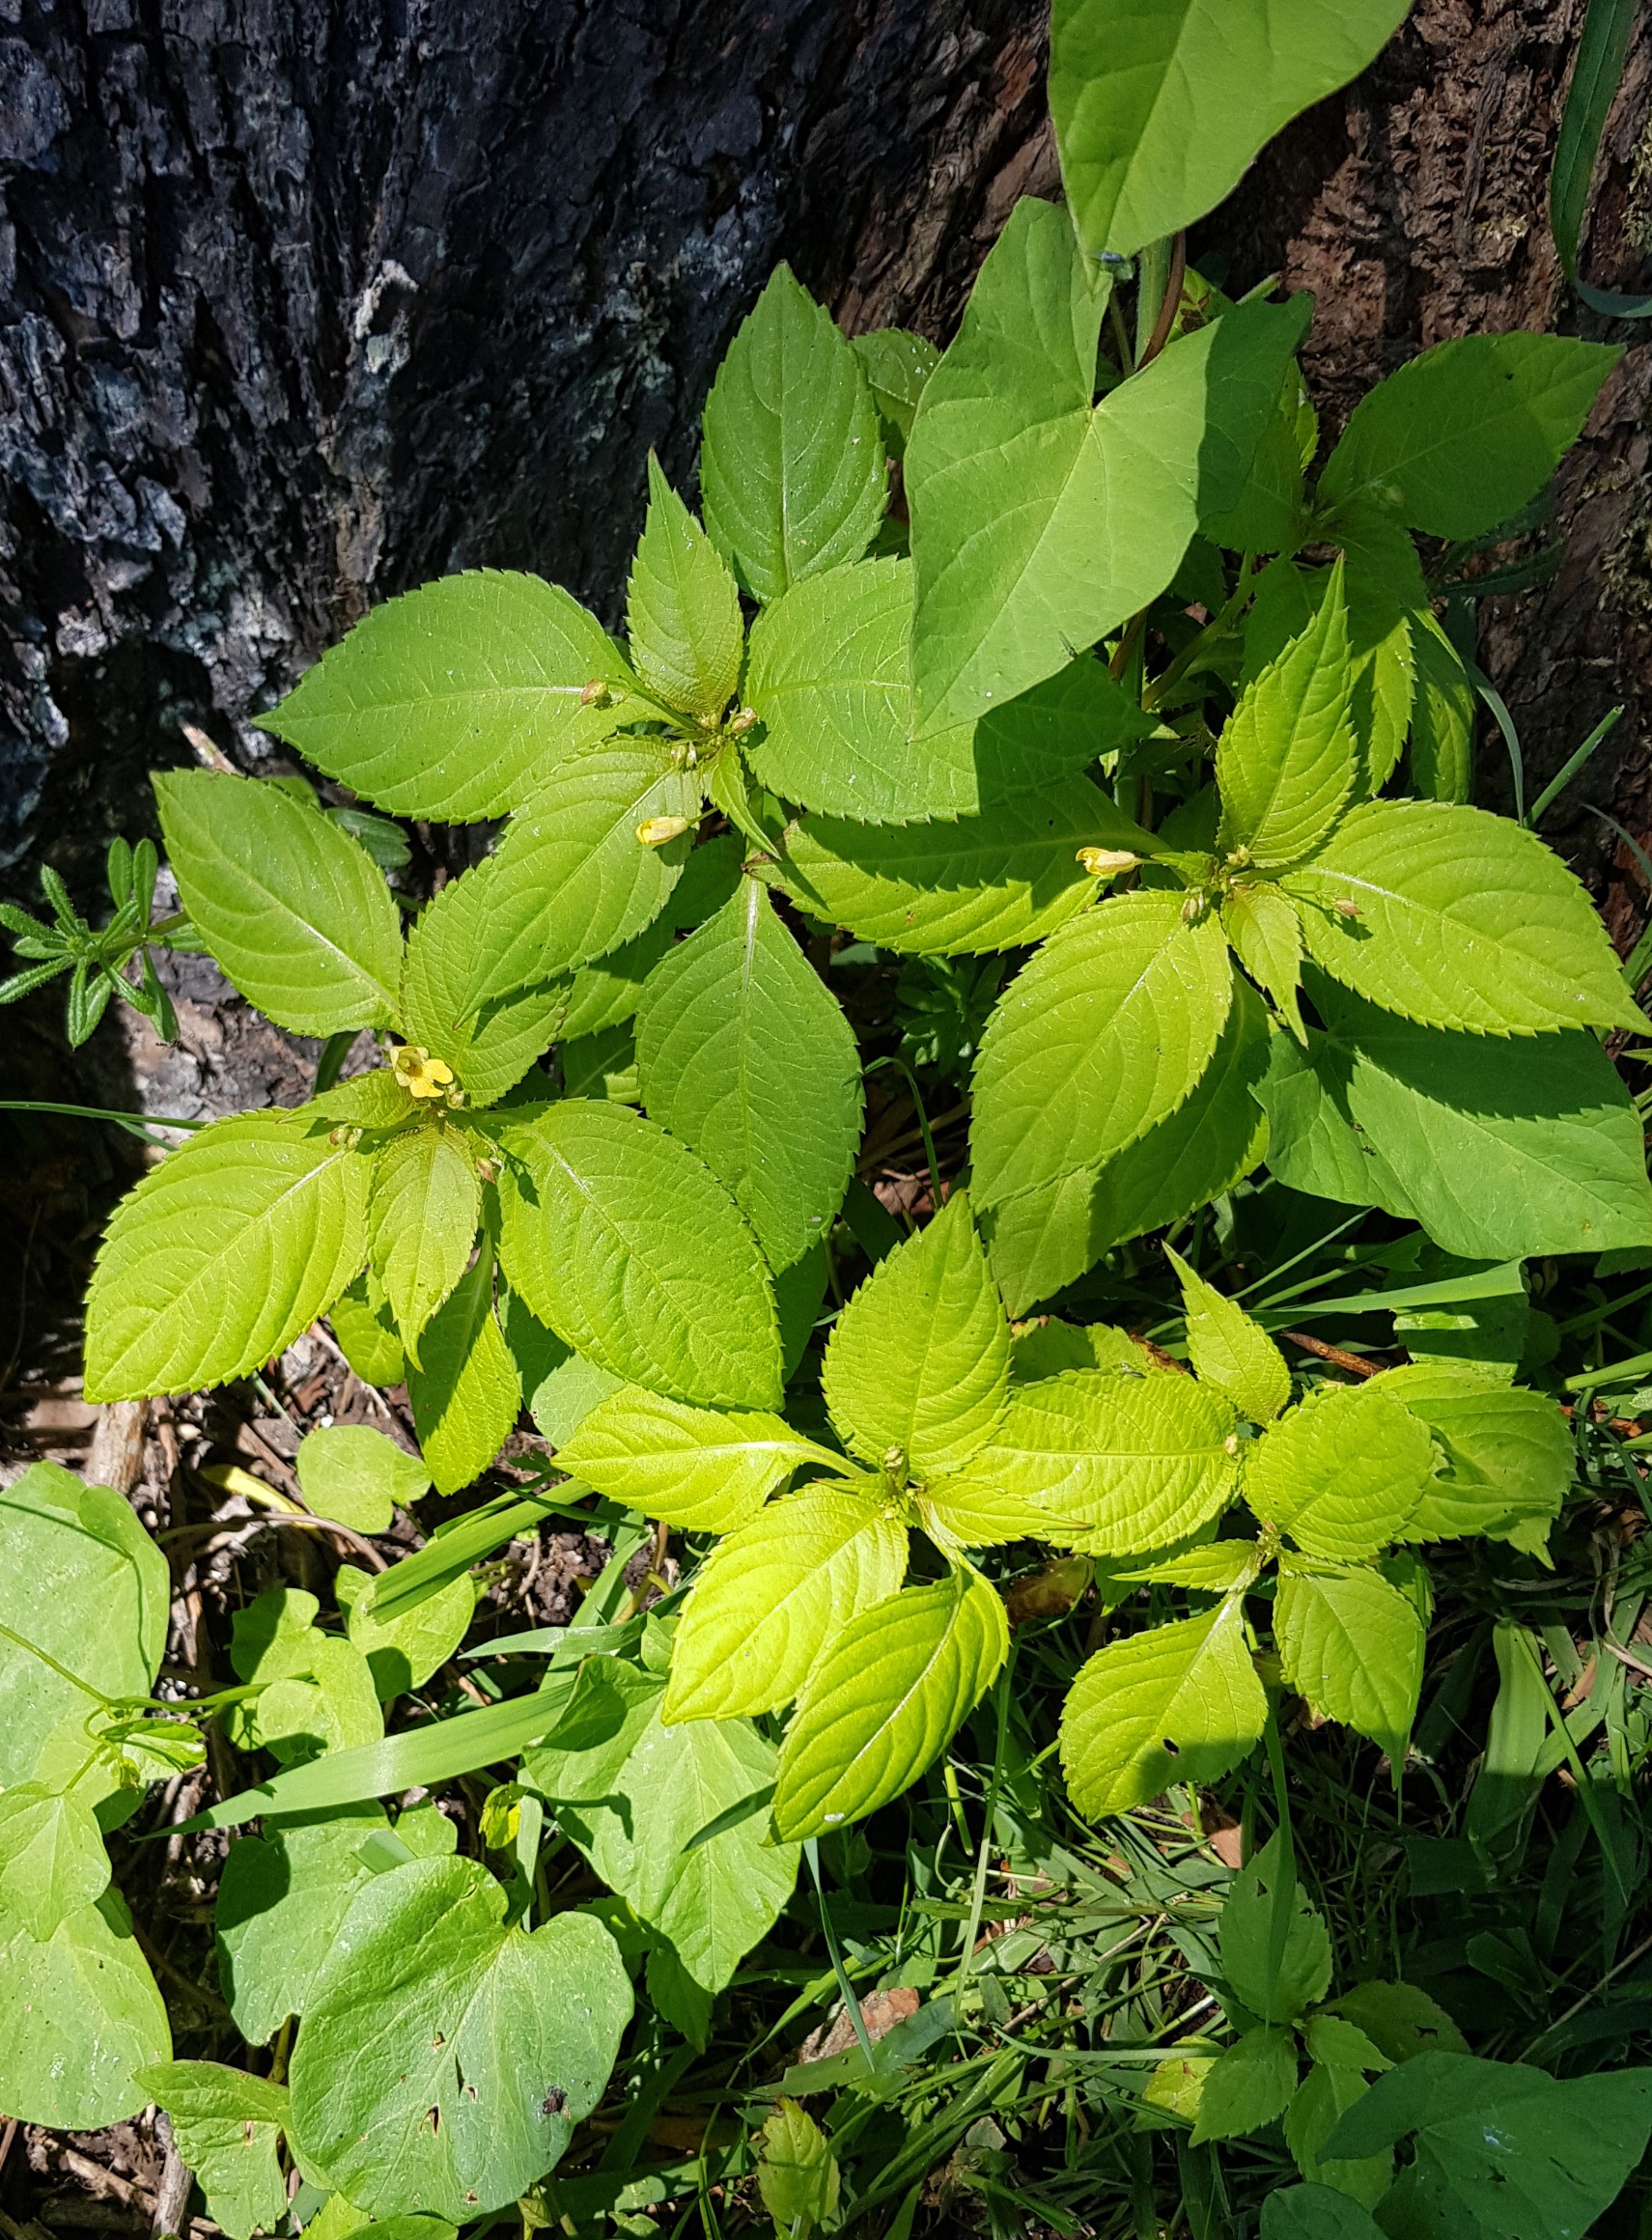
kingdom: Plantae
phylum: Tracheophyta
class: Magnoliopsida
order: Ericales
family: Balsaminaceae
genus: Impatiens
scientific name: Impatiens parviflora
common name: Småblomstret balsamin
